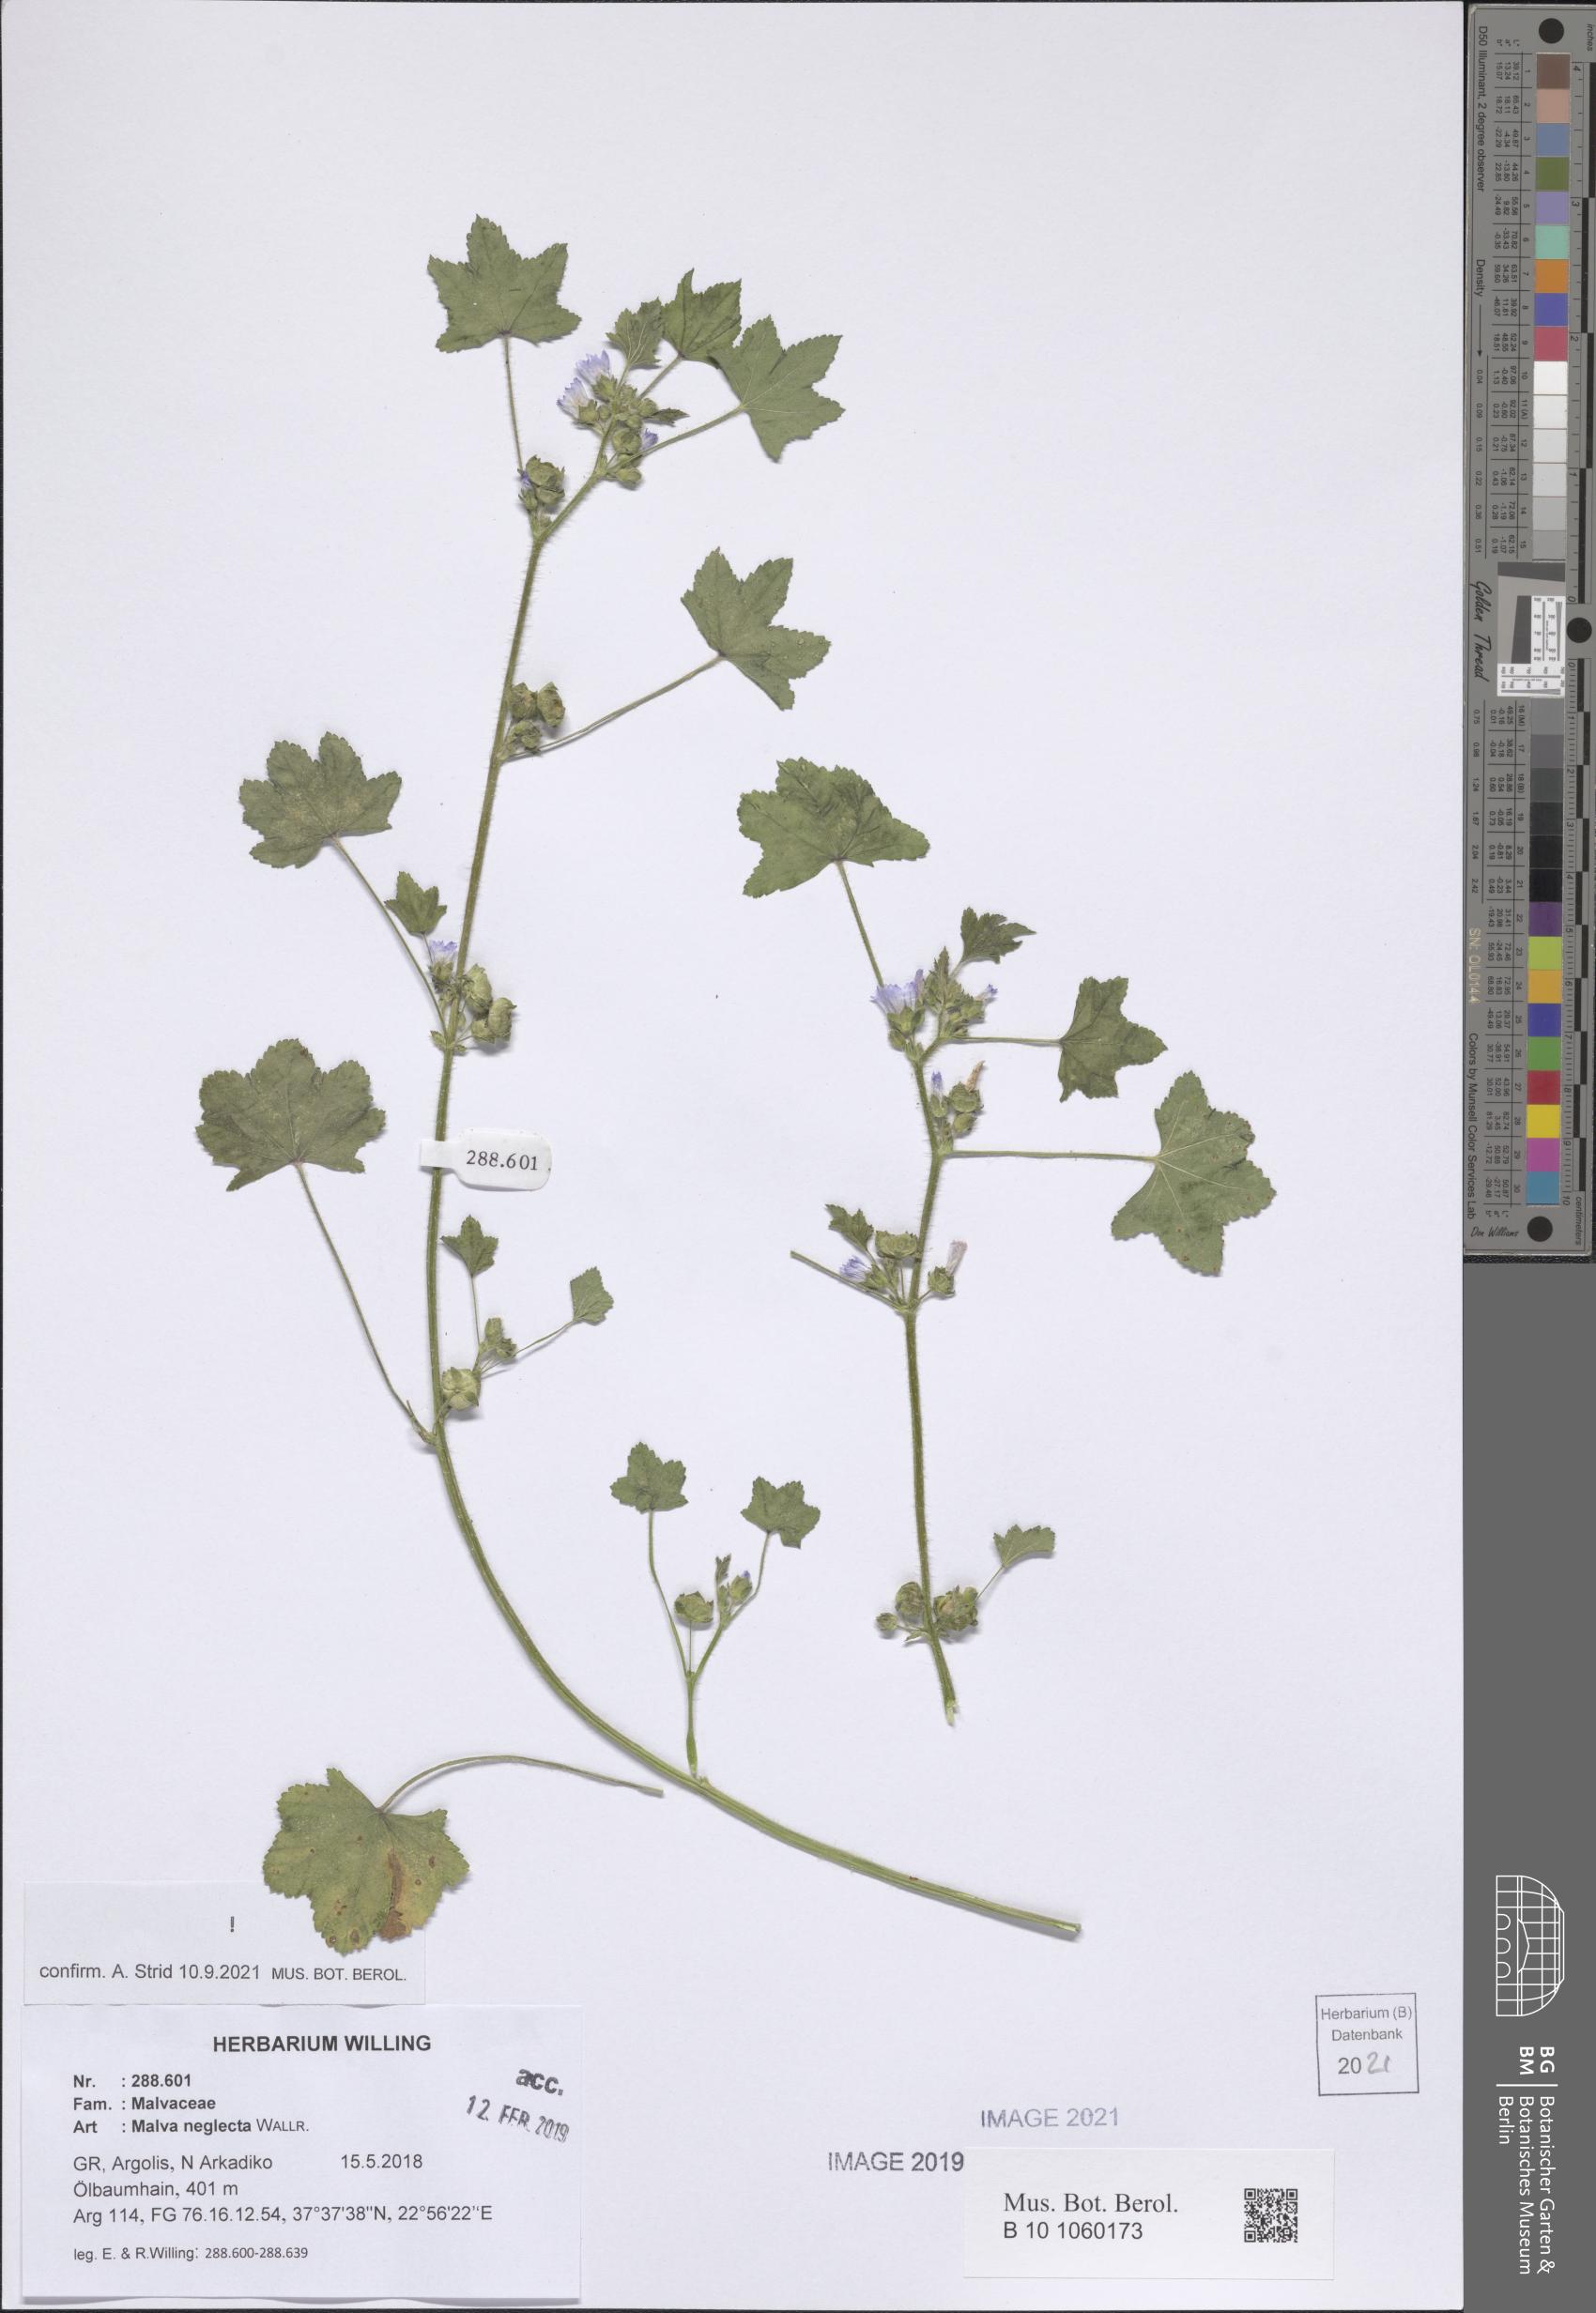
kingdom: Plantae
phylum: Tracheophyta
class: Magnoliopsida
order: Malvales
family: Malvaceae
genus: Malva
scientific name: Malva neglecta
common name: Common mallow
